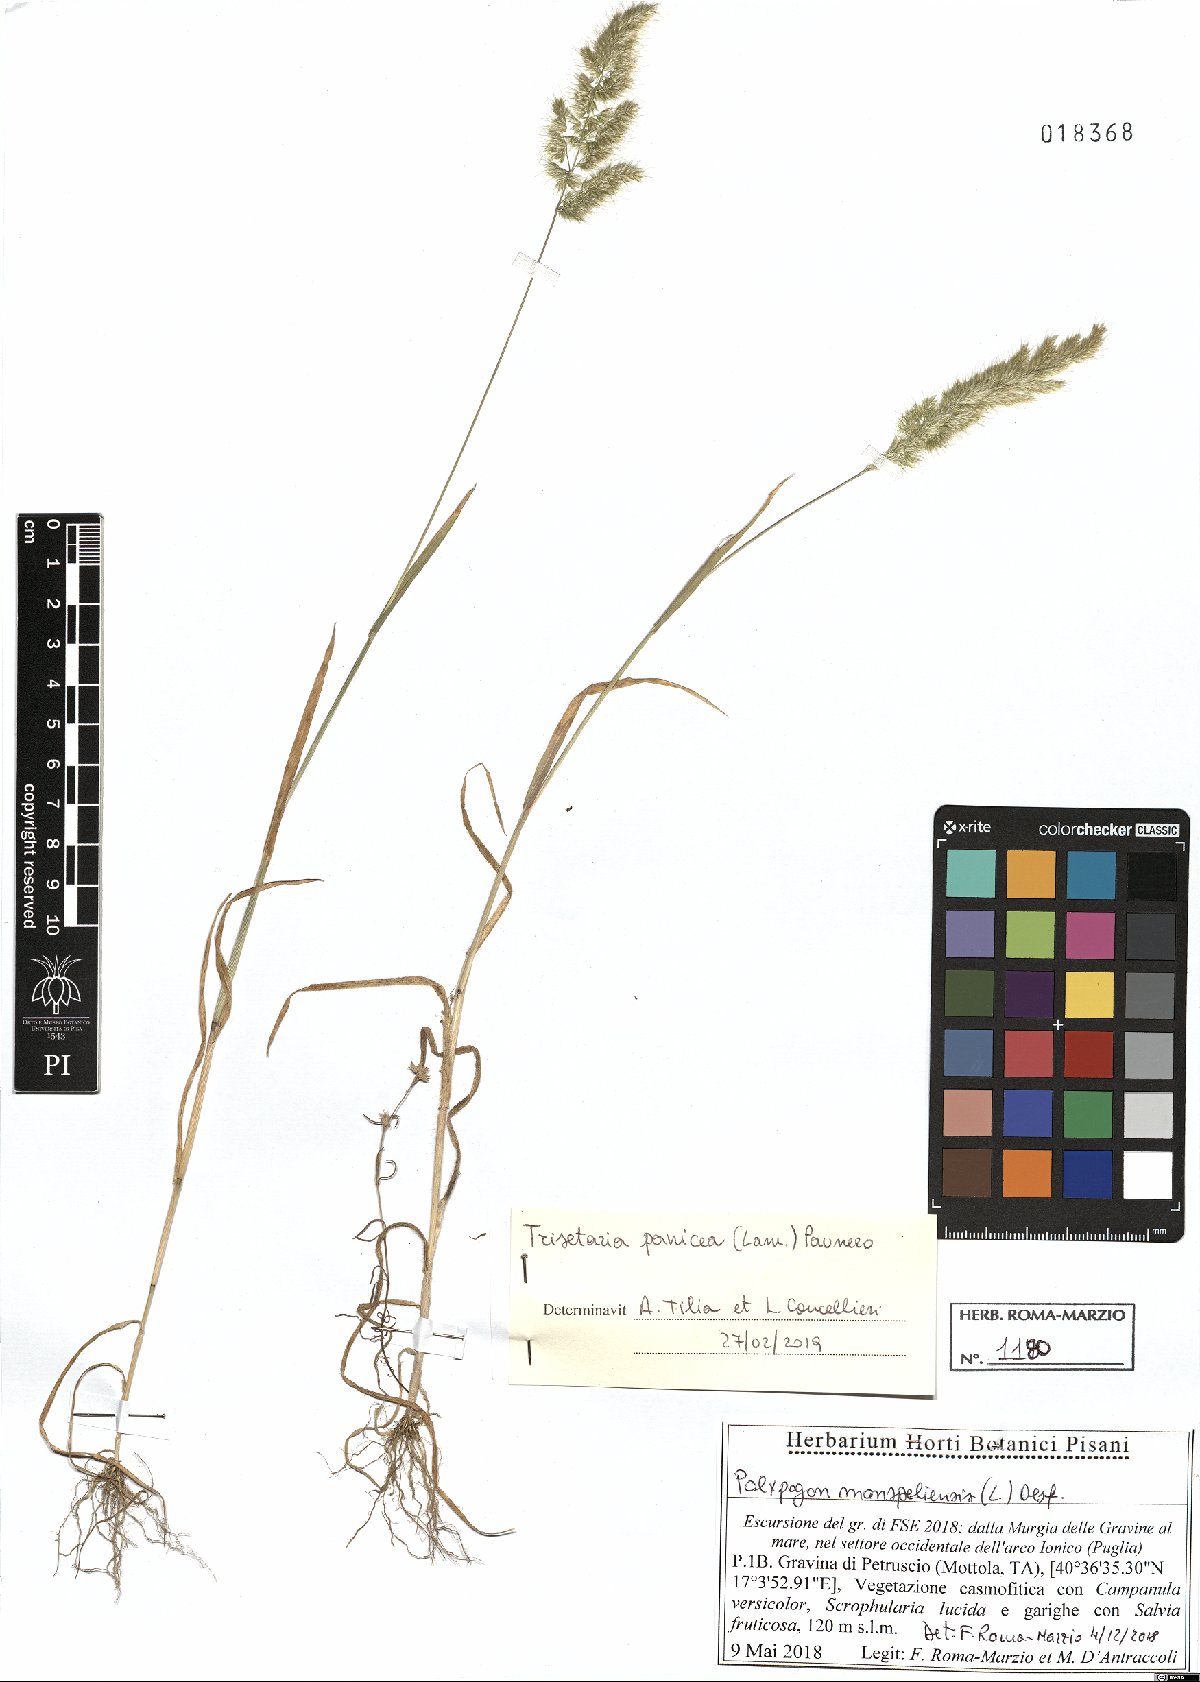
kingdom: Plantae
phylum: Tracheophyta
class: Liliopsida
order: Poales
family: Poaceae
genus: Trisetaria
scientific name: Trisetaria panicea
